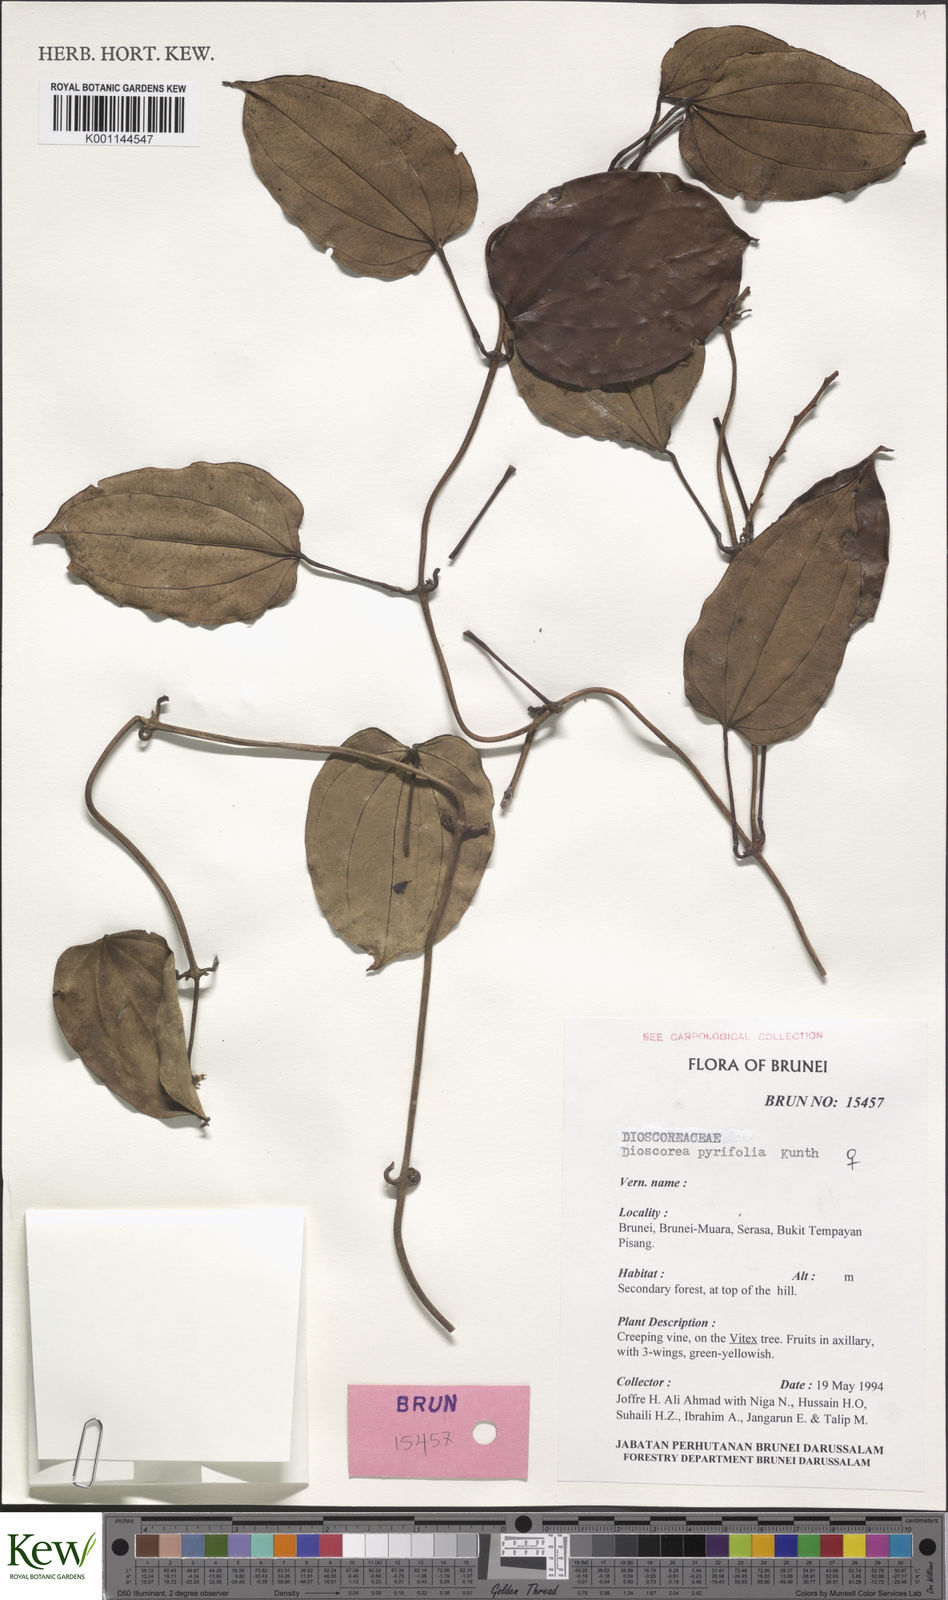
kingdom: Plantae
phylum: Tracheophyta
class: Liliopsida
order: Dioscoreales
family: Dioscoreaceae
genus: Dioscorea
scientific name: Dioscorea pyrifolia
